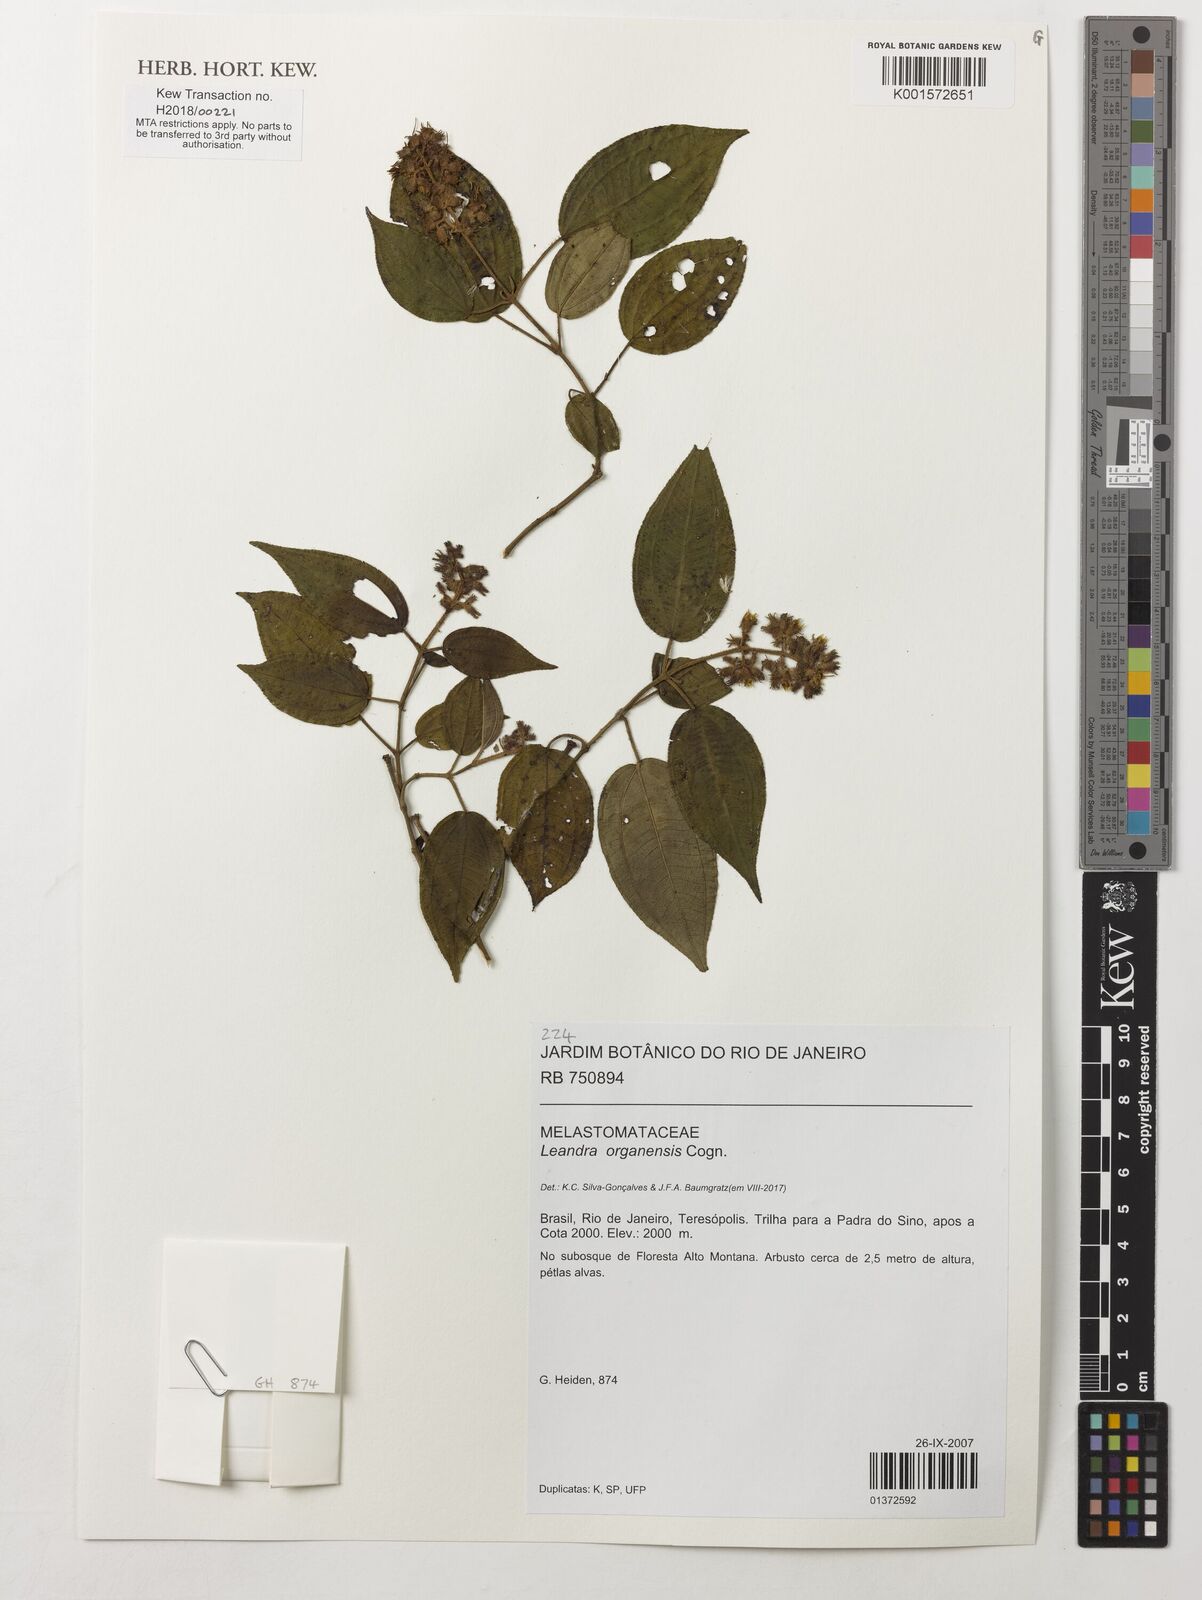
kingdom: Plantae
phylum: Tracheophyta
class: Magnoliopsida
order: Myrtales
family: Melastomataceae
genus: Miconia
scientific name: Miconia leaorganensis
